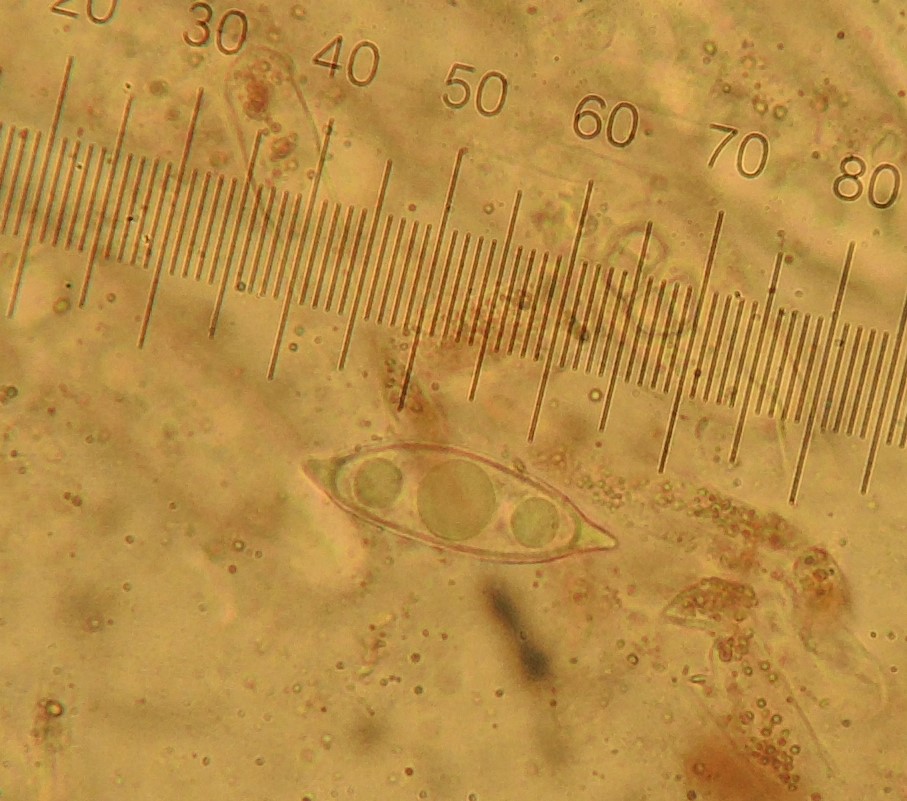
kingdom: Fungi
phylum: Ascomycota
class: Pezizomycetes
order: Pezizales
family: Discinaceae
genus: Discina
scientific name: Discina ancilis
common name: udbredt stenmorkel
